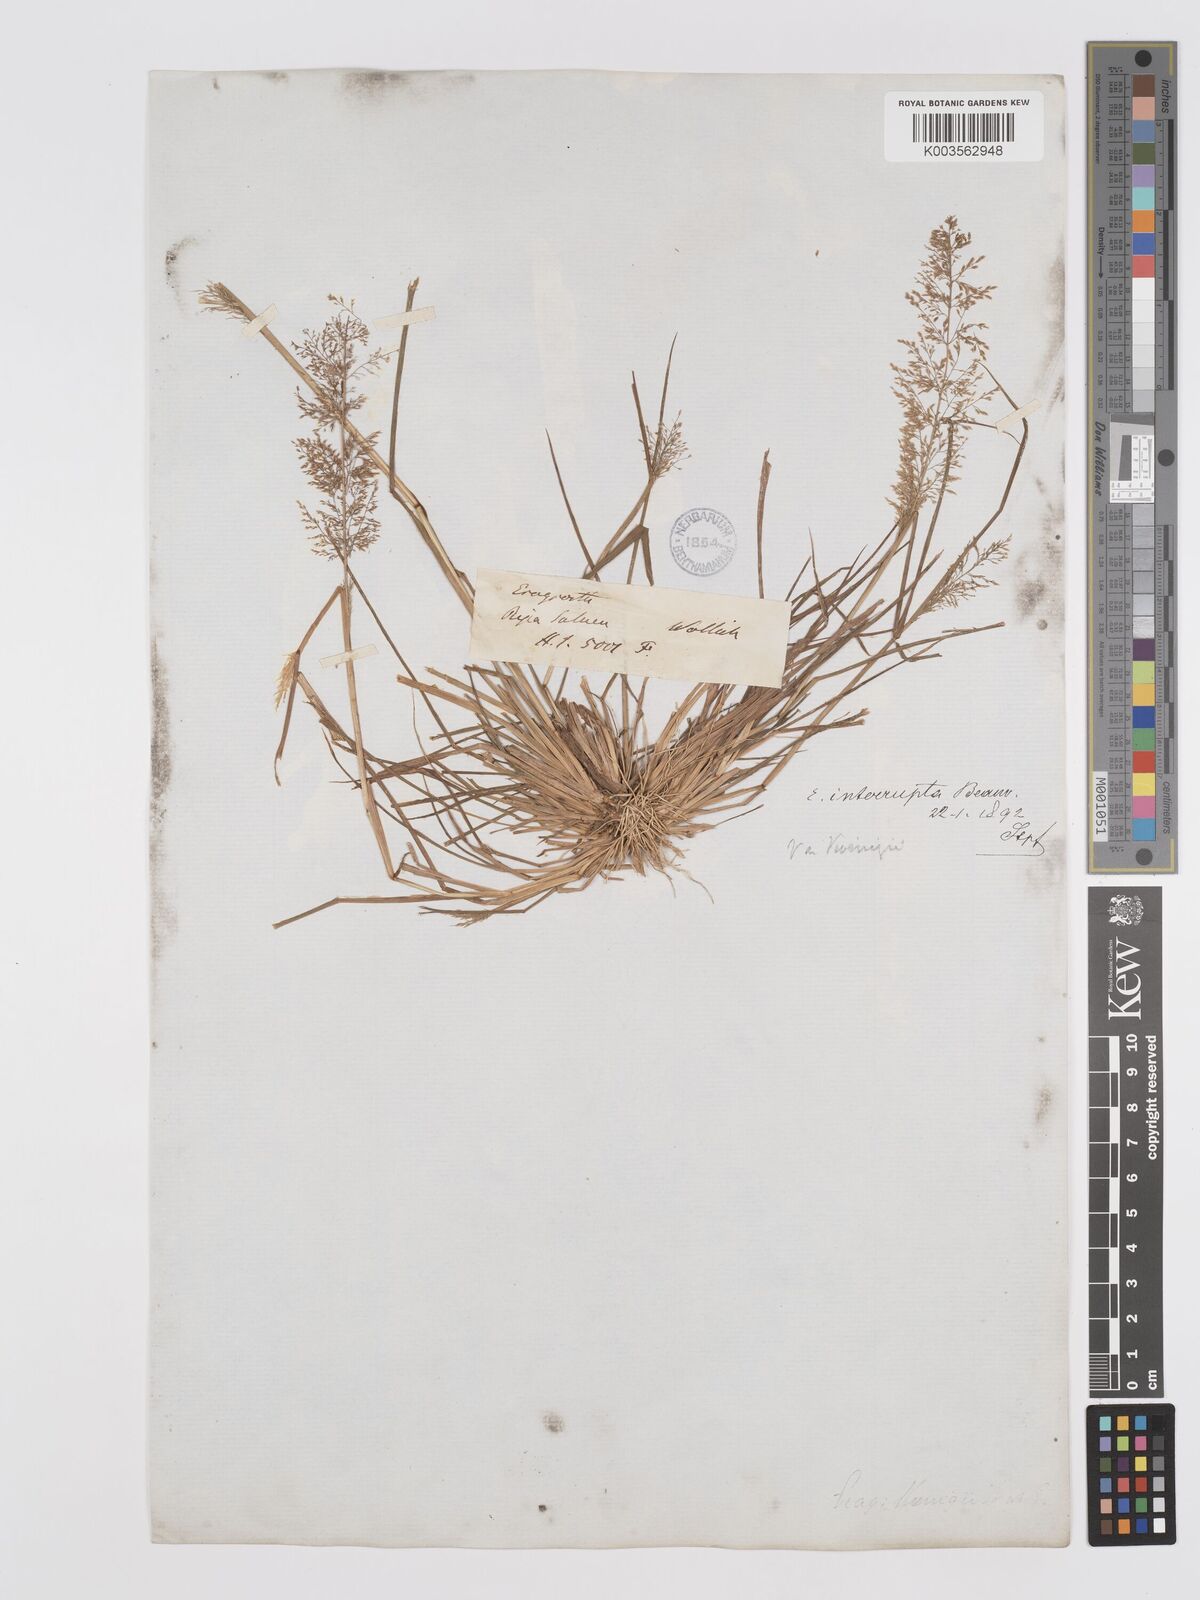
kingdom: Plantae
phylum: Tracheophyta
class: Liliopsida
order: Poales
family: Poaceae
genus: Eragrostis
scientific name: Eragrostis japonica
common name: Pond lovegrass
